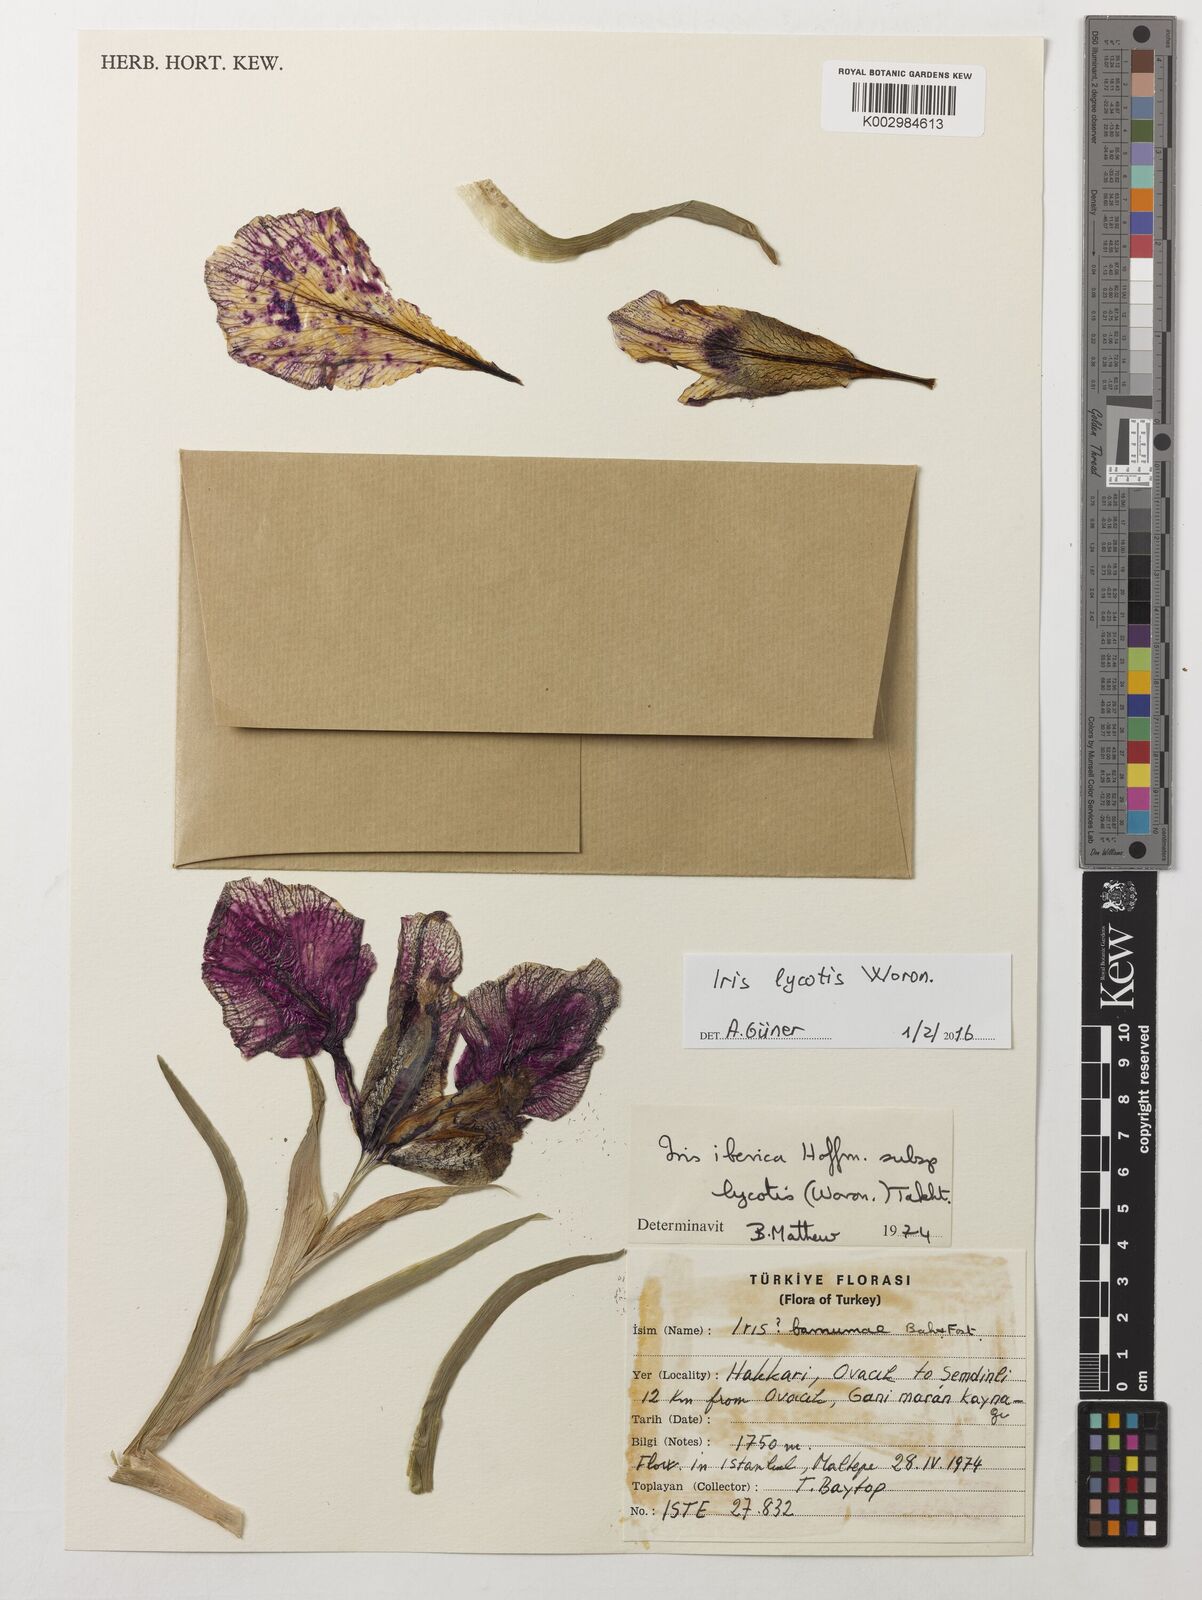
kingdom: Plantae
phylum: Tracheophyta
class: Liliopsida
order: Asparagales
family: Iridaceae
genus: Iris
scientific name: Iris lycotis
